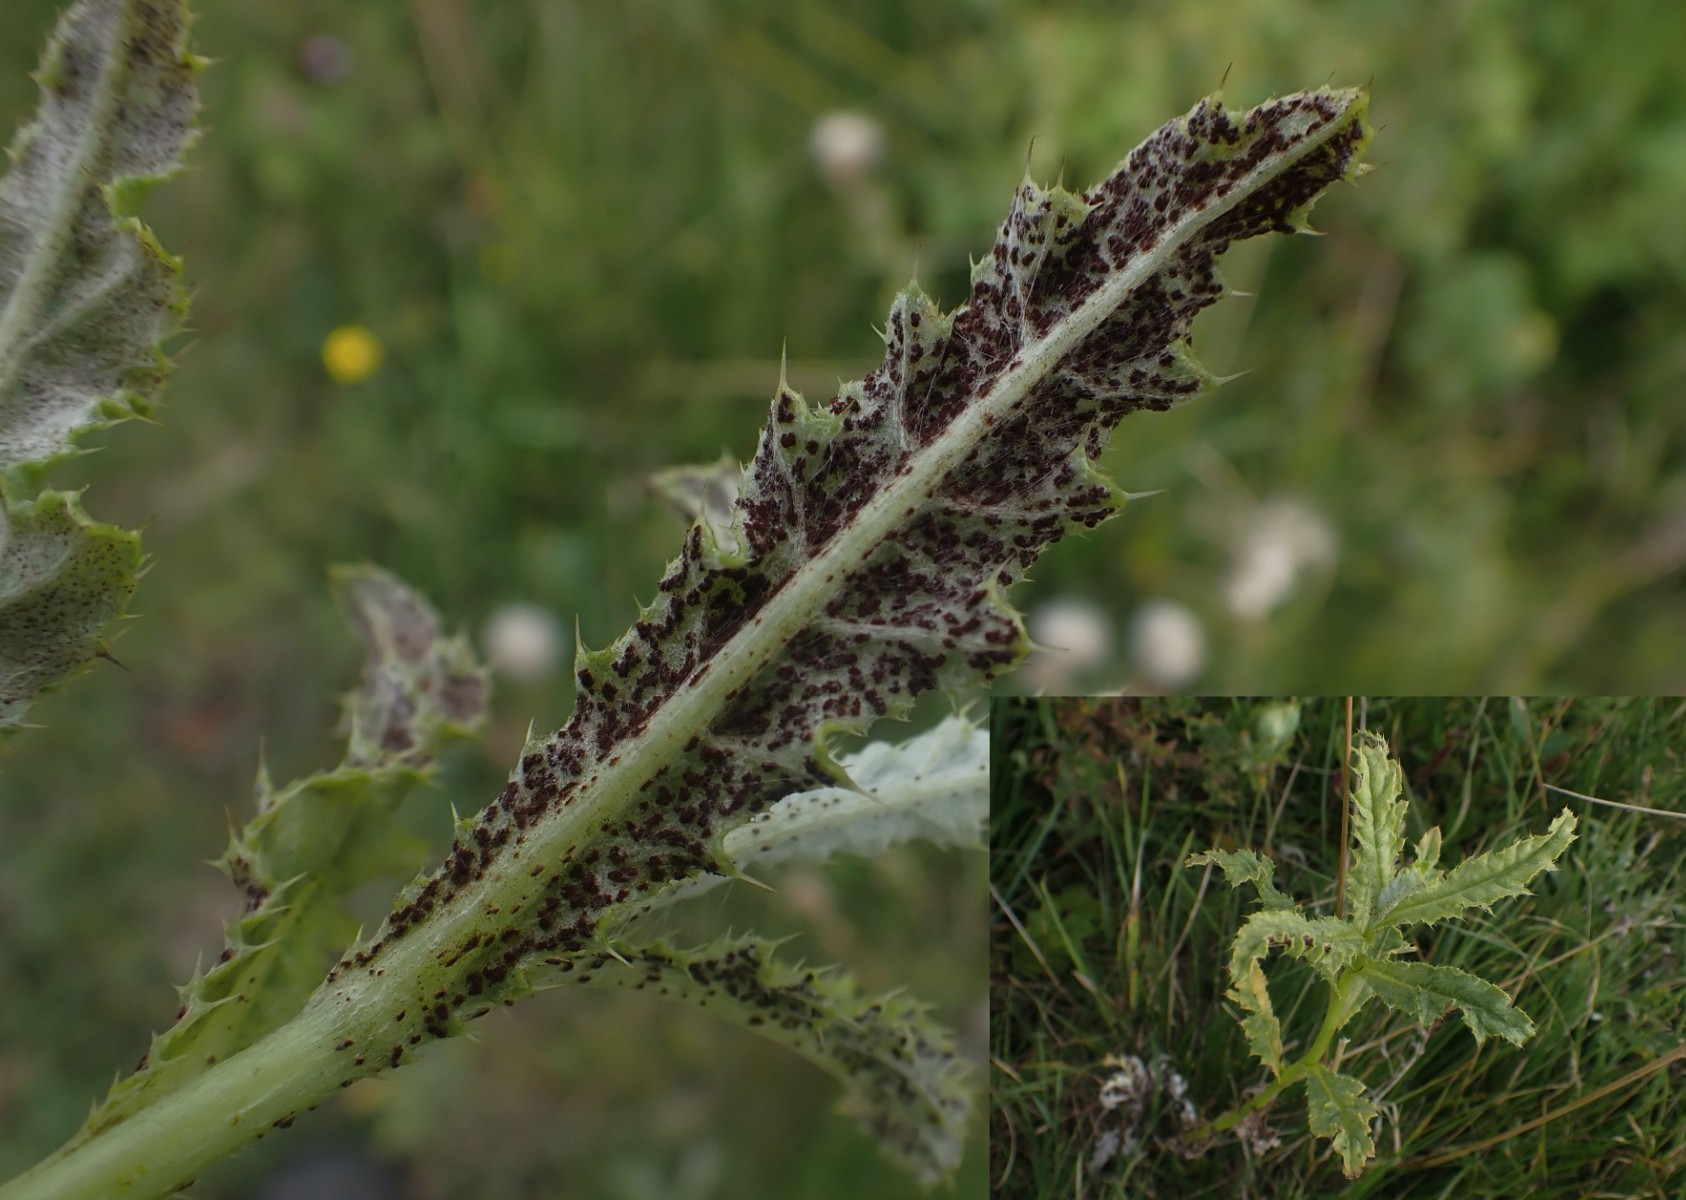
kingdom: Fungi
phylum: Basidiomycota
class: Pucciniomycetes
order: Pucciniales
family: Pucciniaceae
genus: Puccinia
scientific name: Puccinia suaveolens
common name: tidsel-tvecellerust
